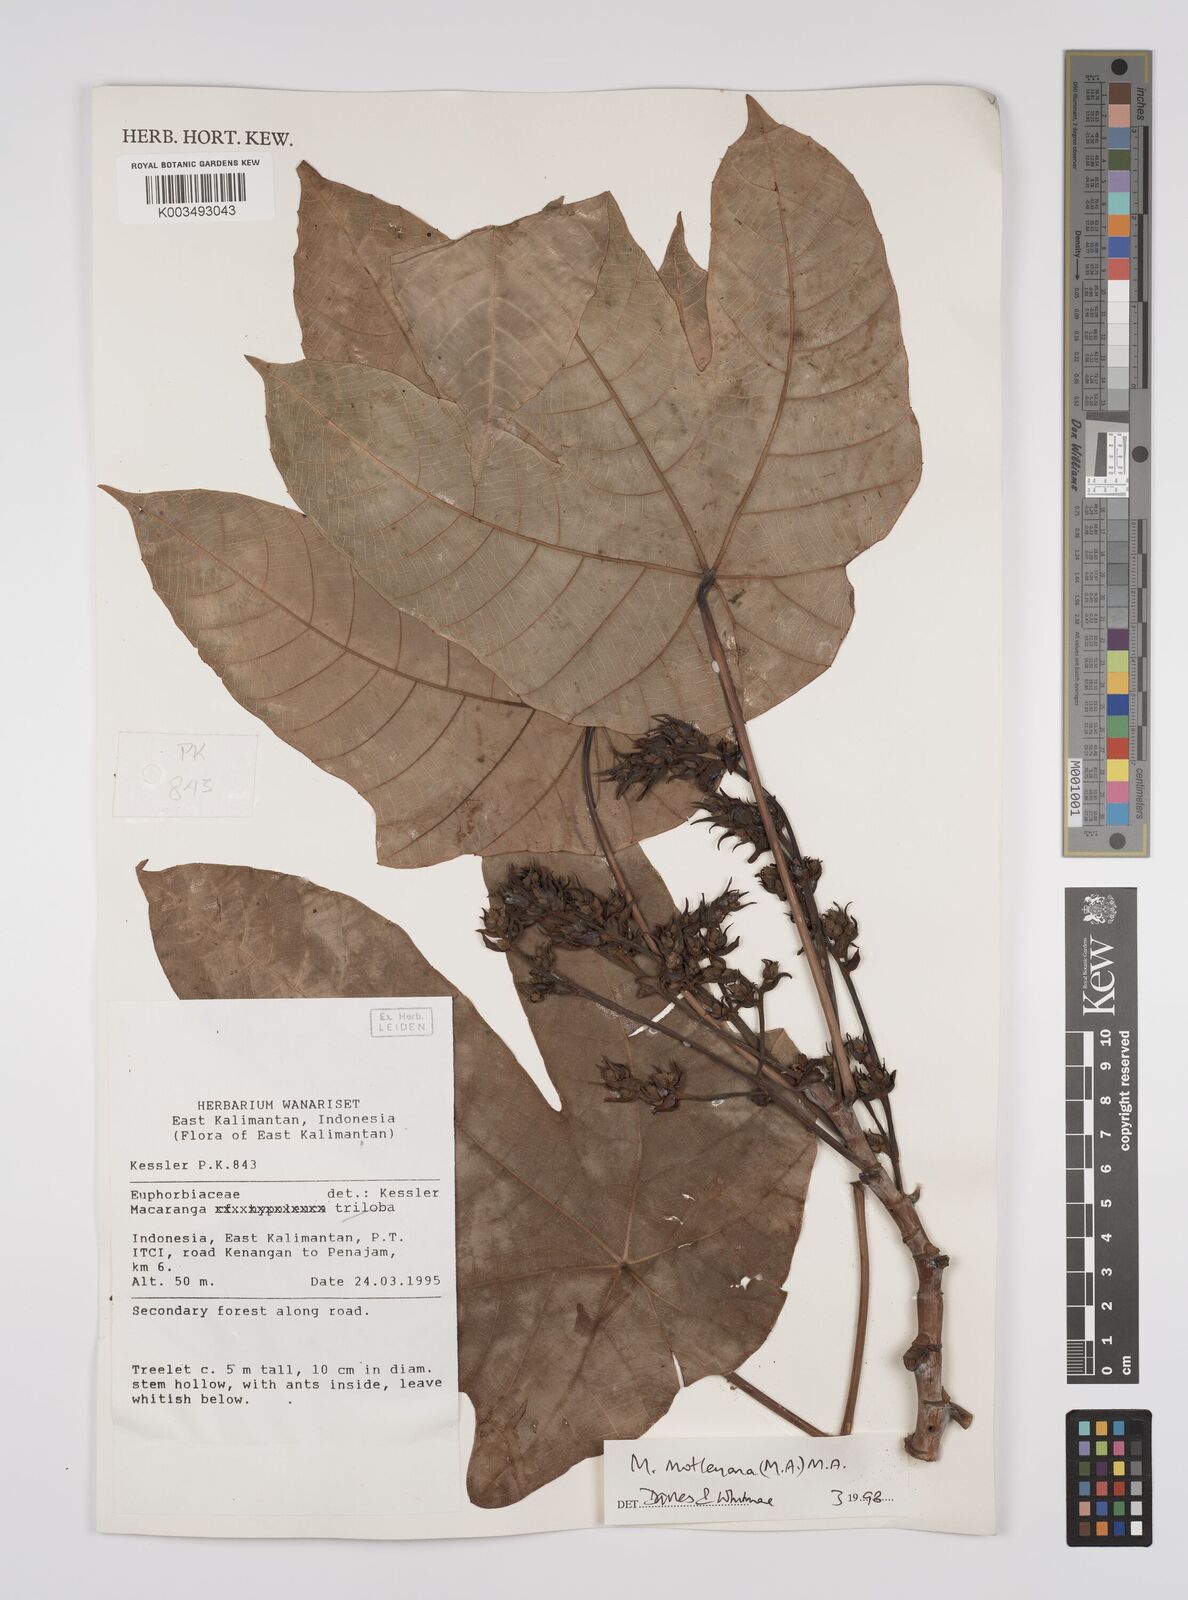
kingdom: Plantae
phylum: Tracheophyta
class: Magnoliopsida
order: Malpighiales
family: Euphorbiaceae
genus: Macaranga
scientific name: Macaranga motleyana
